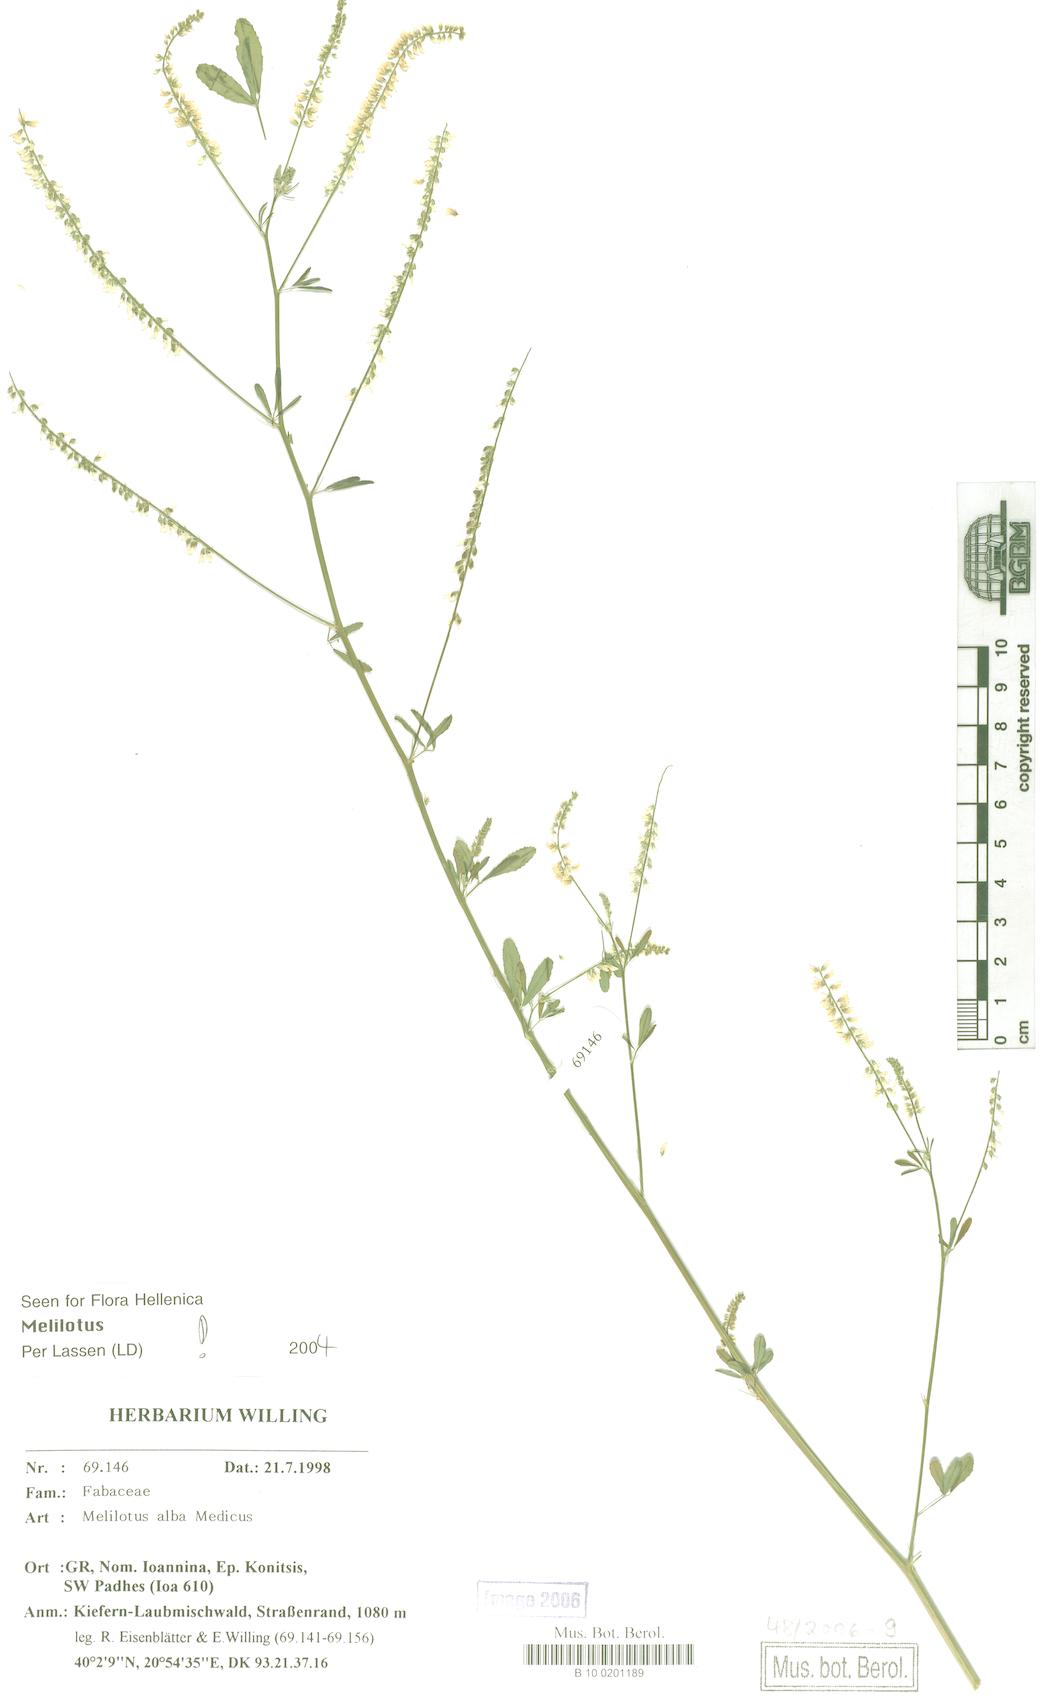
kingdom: Plantae
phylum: Tracheophyta
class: Magnoliopsida
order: Fabales
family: Fabaceae
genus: Melilotus
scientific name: Melilotus albus
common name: White melilot
